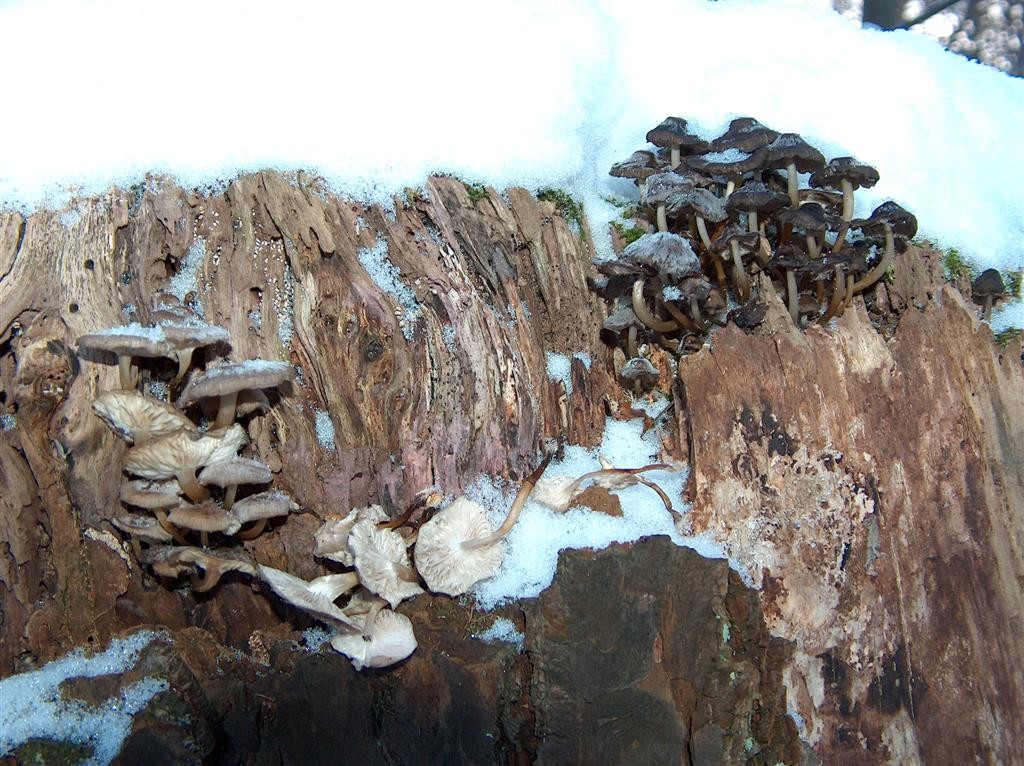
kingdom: Fungi
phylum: Basidiomycota
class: Agaricomycetes
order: Agaricales
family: Mycenaceae
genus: Mycena
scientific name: Mycena tintinnabulum
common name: vinter-huesvamp
